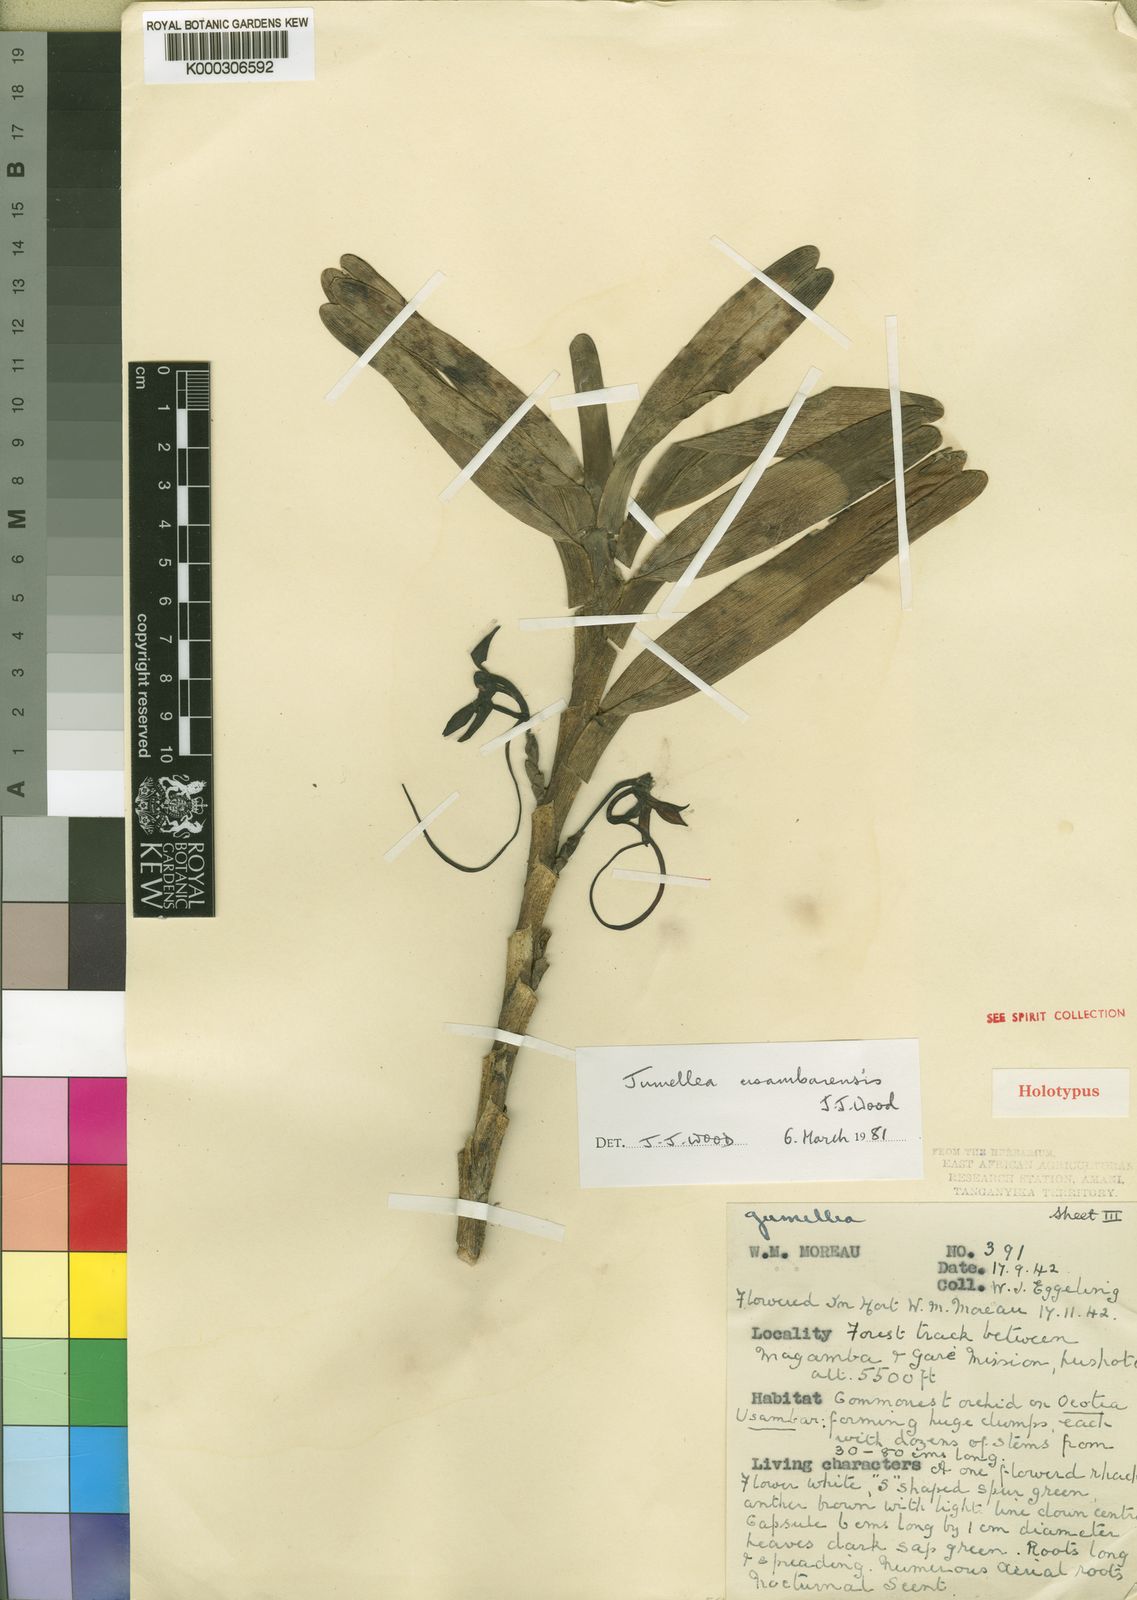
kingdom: Plantae
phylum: Tracheophyta
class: Liliopsida
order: Asparagales
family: Orchidaceae
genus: Jumellea
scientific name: Jumellea usambarensis
